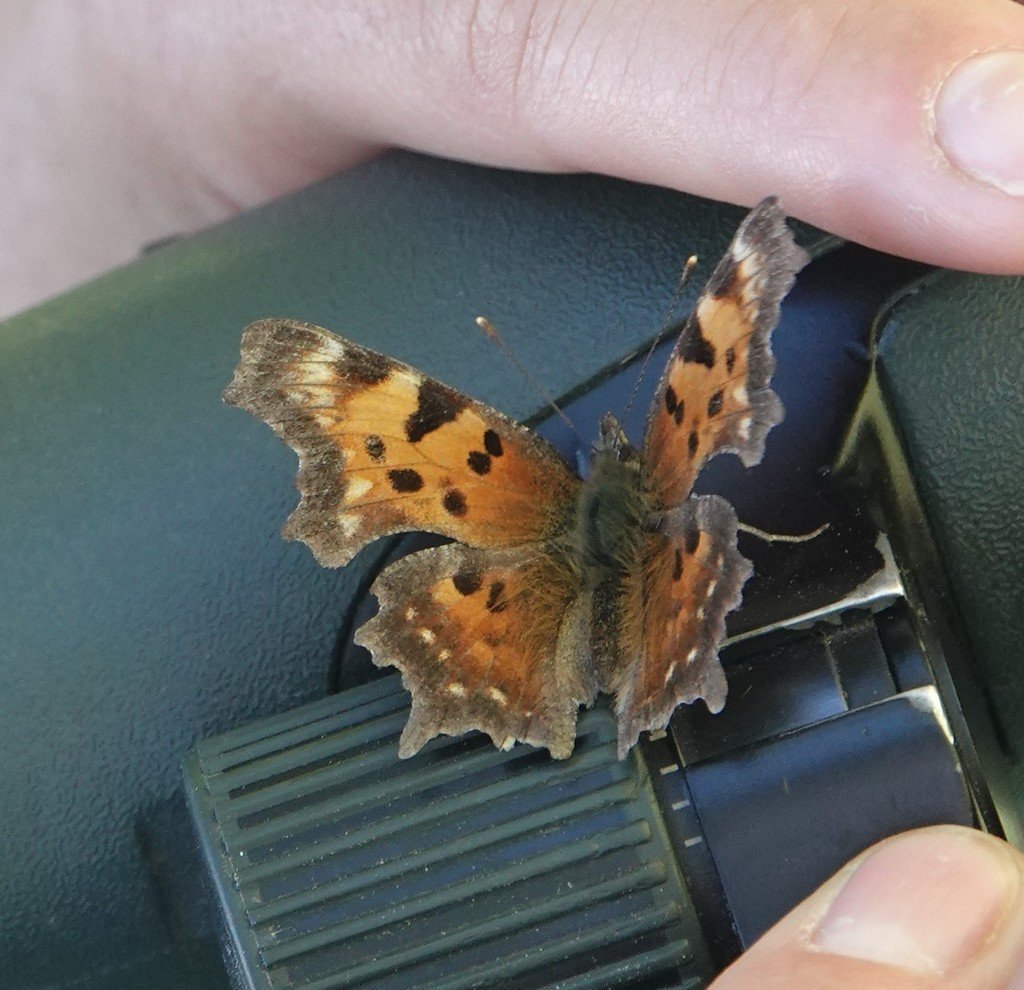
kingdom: Animalia
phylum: Arthropoda
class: Insecta
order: Lepidoptera
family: Nymphalidae
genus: Polygonia
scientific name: Polygonia faunus
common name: Green Comma
